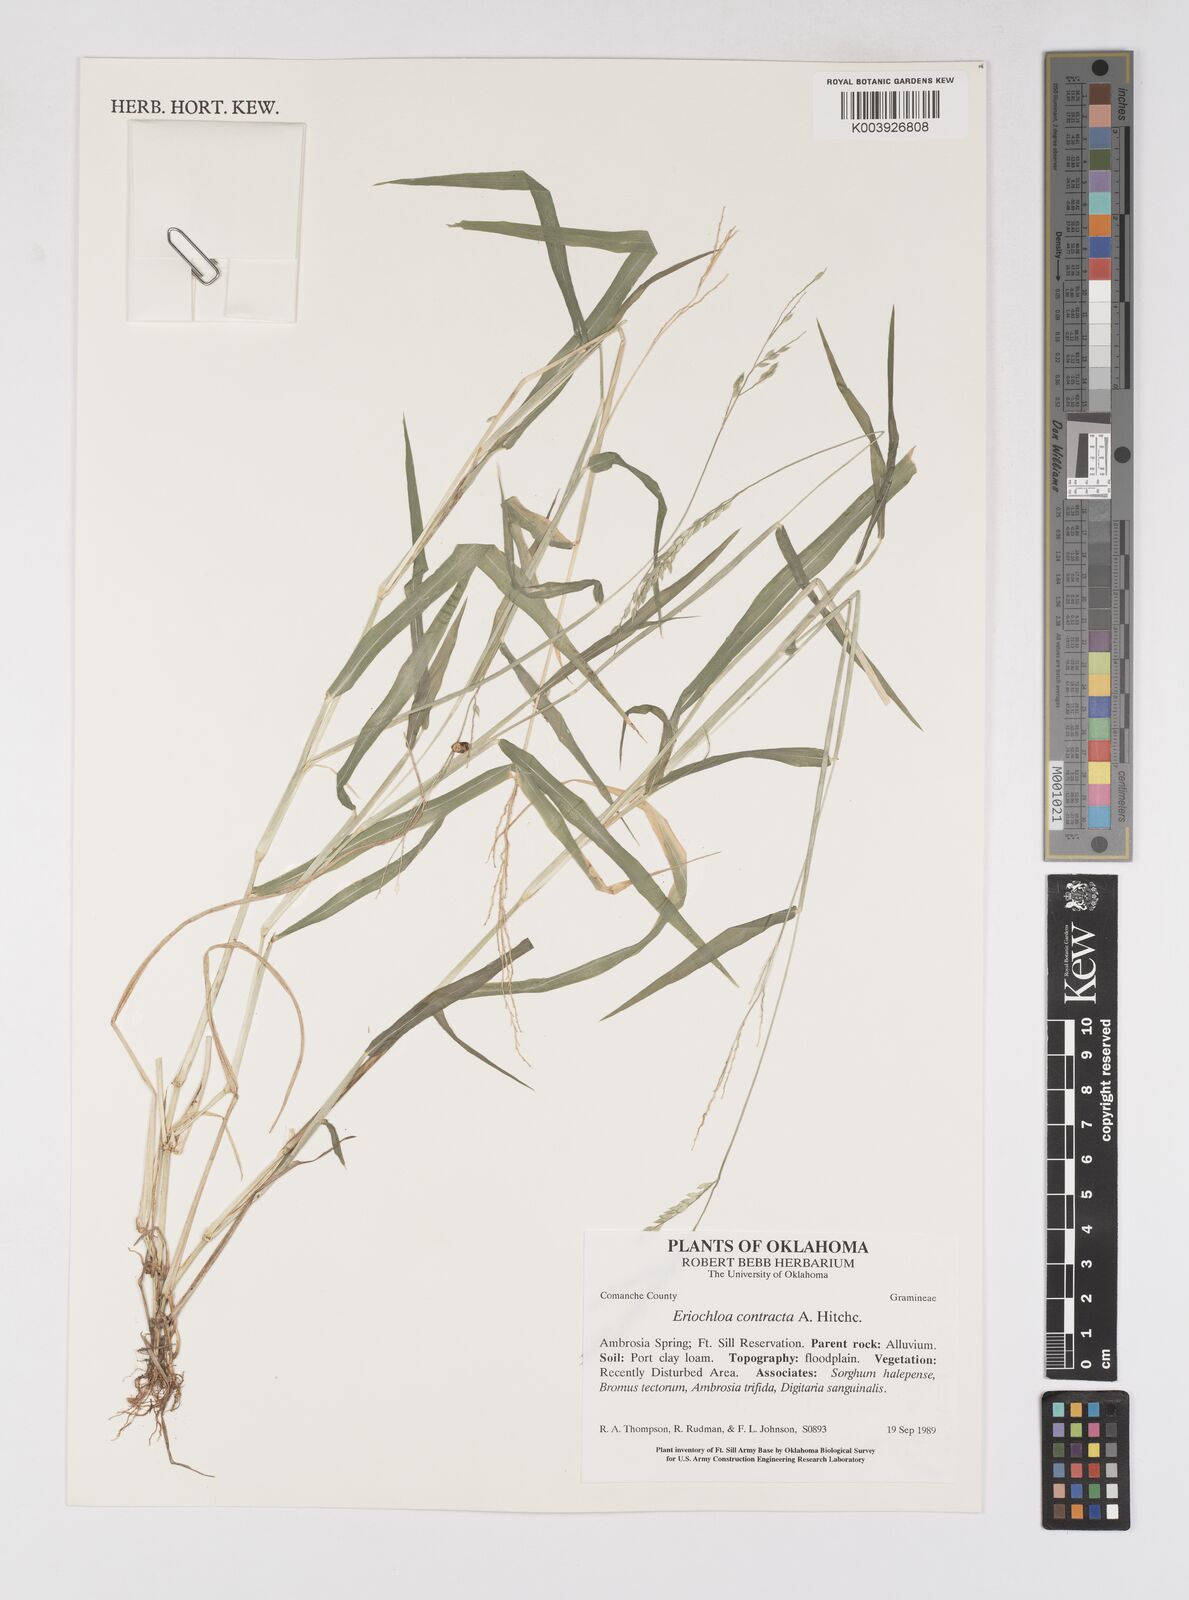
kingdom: Plantae
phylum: Tracheophyta
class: Liliopsida
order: Poales
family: Poaceae
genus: Eriochloa
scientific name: Eriochloa contracta
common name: Prairie cup grass
